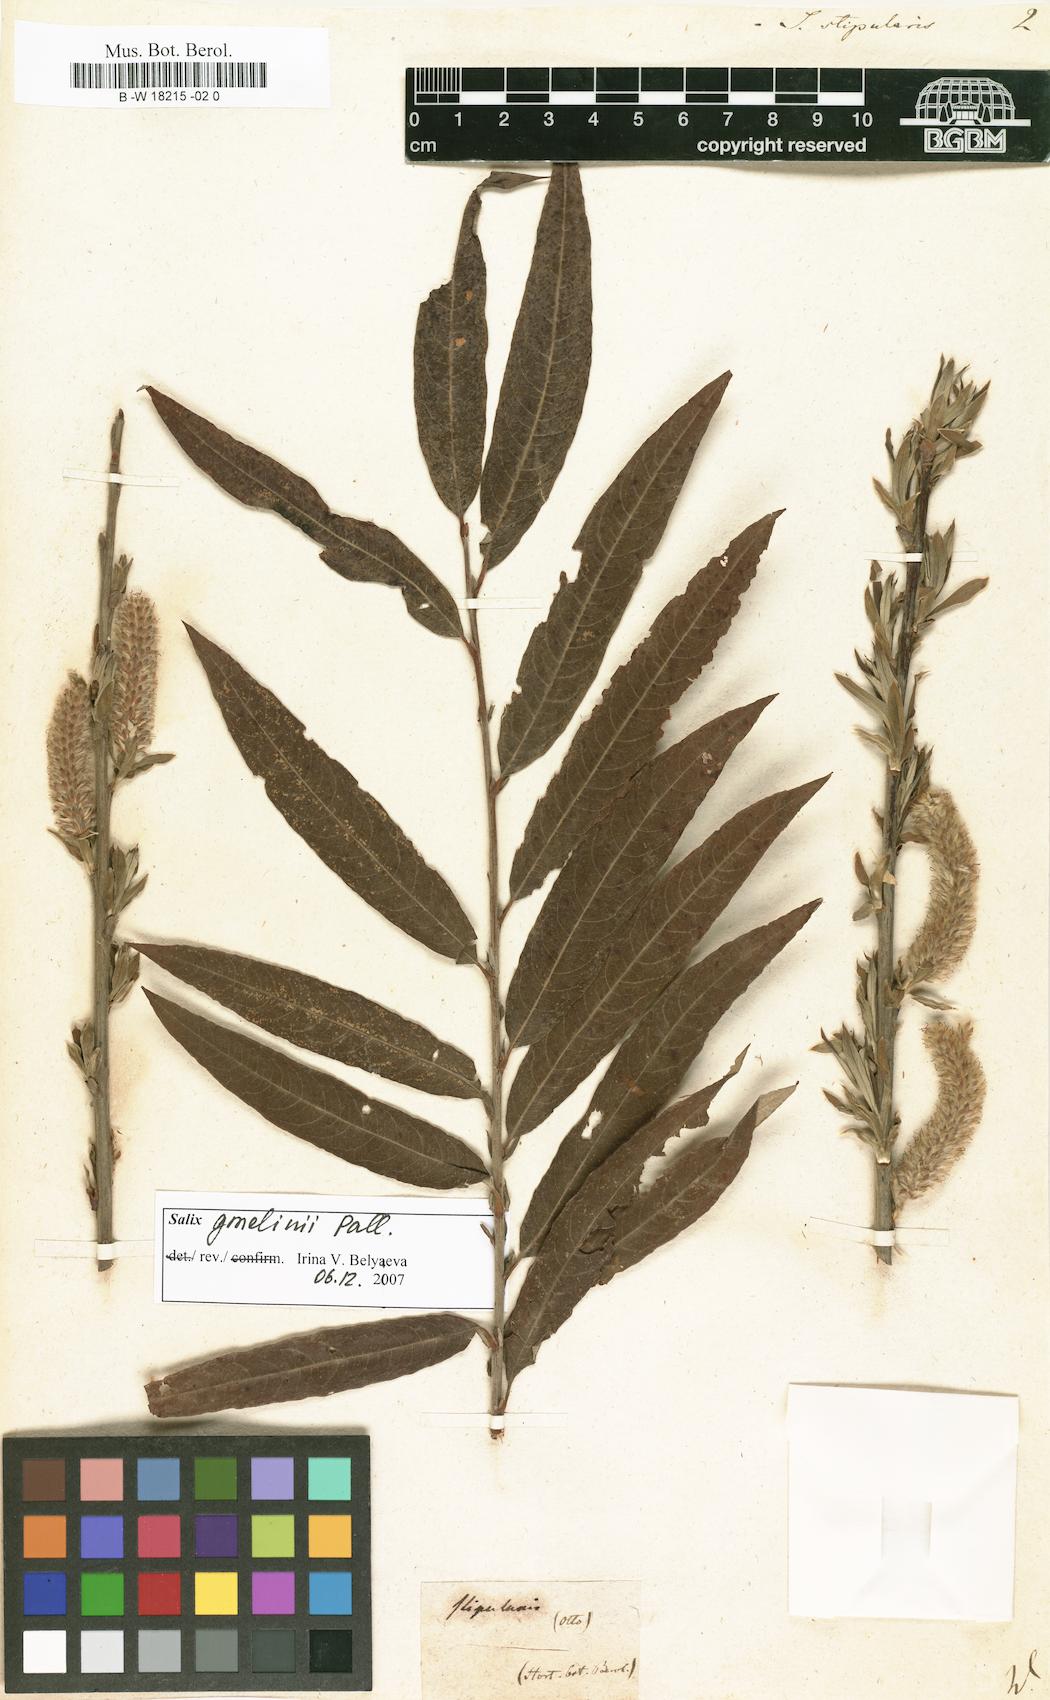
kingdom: Plantae
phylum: Tracheophyta
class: Magnoliopsida
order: Malpighiales
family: Salicaceae
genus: Salix
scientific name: Salix stipularis
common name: Eared osier
